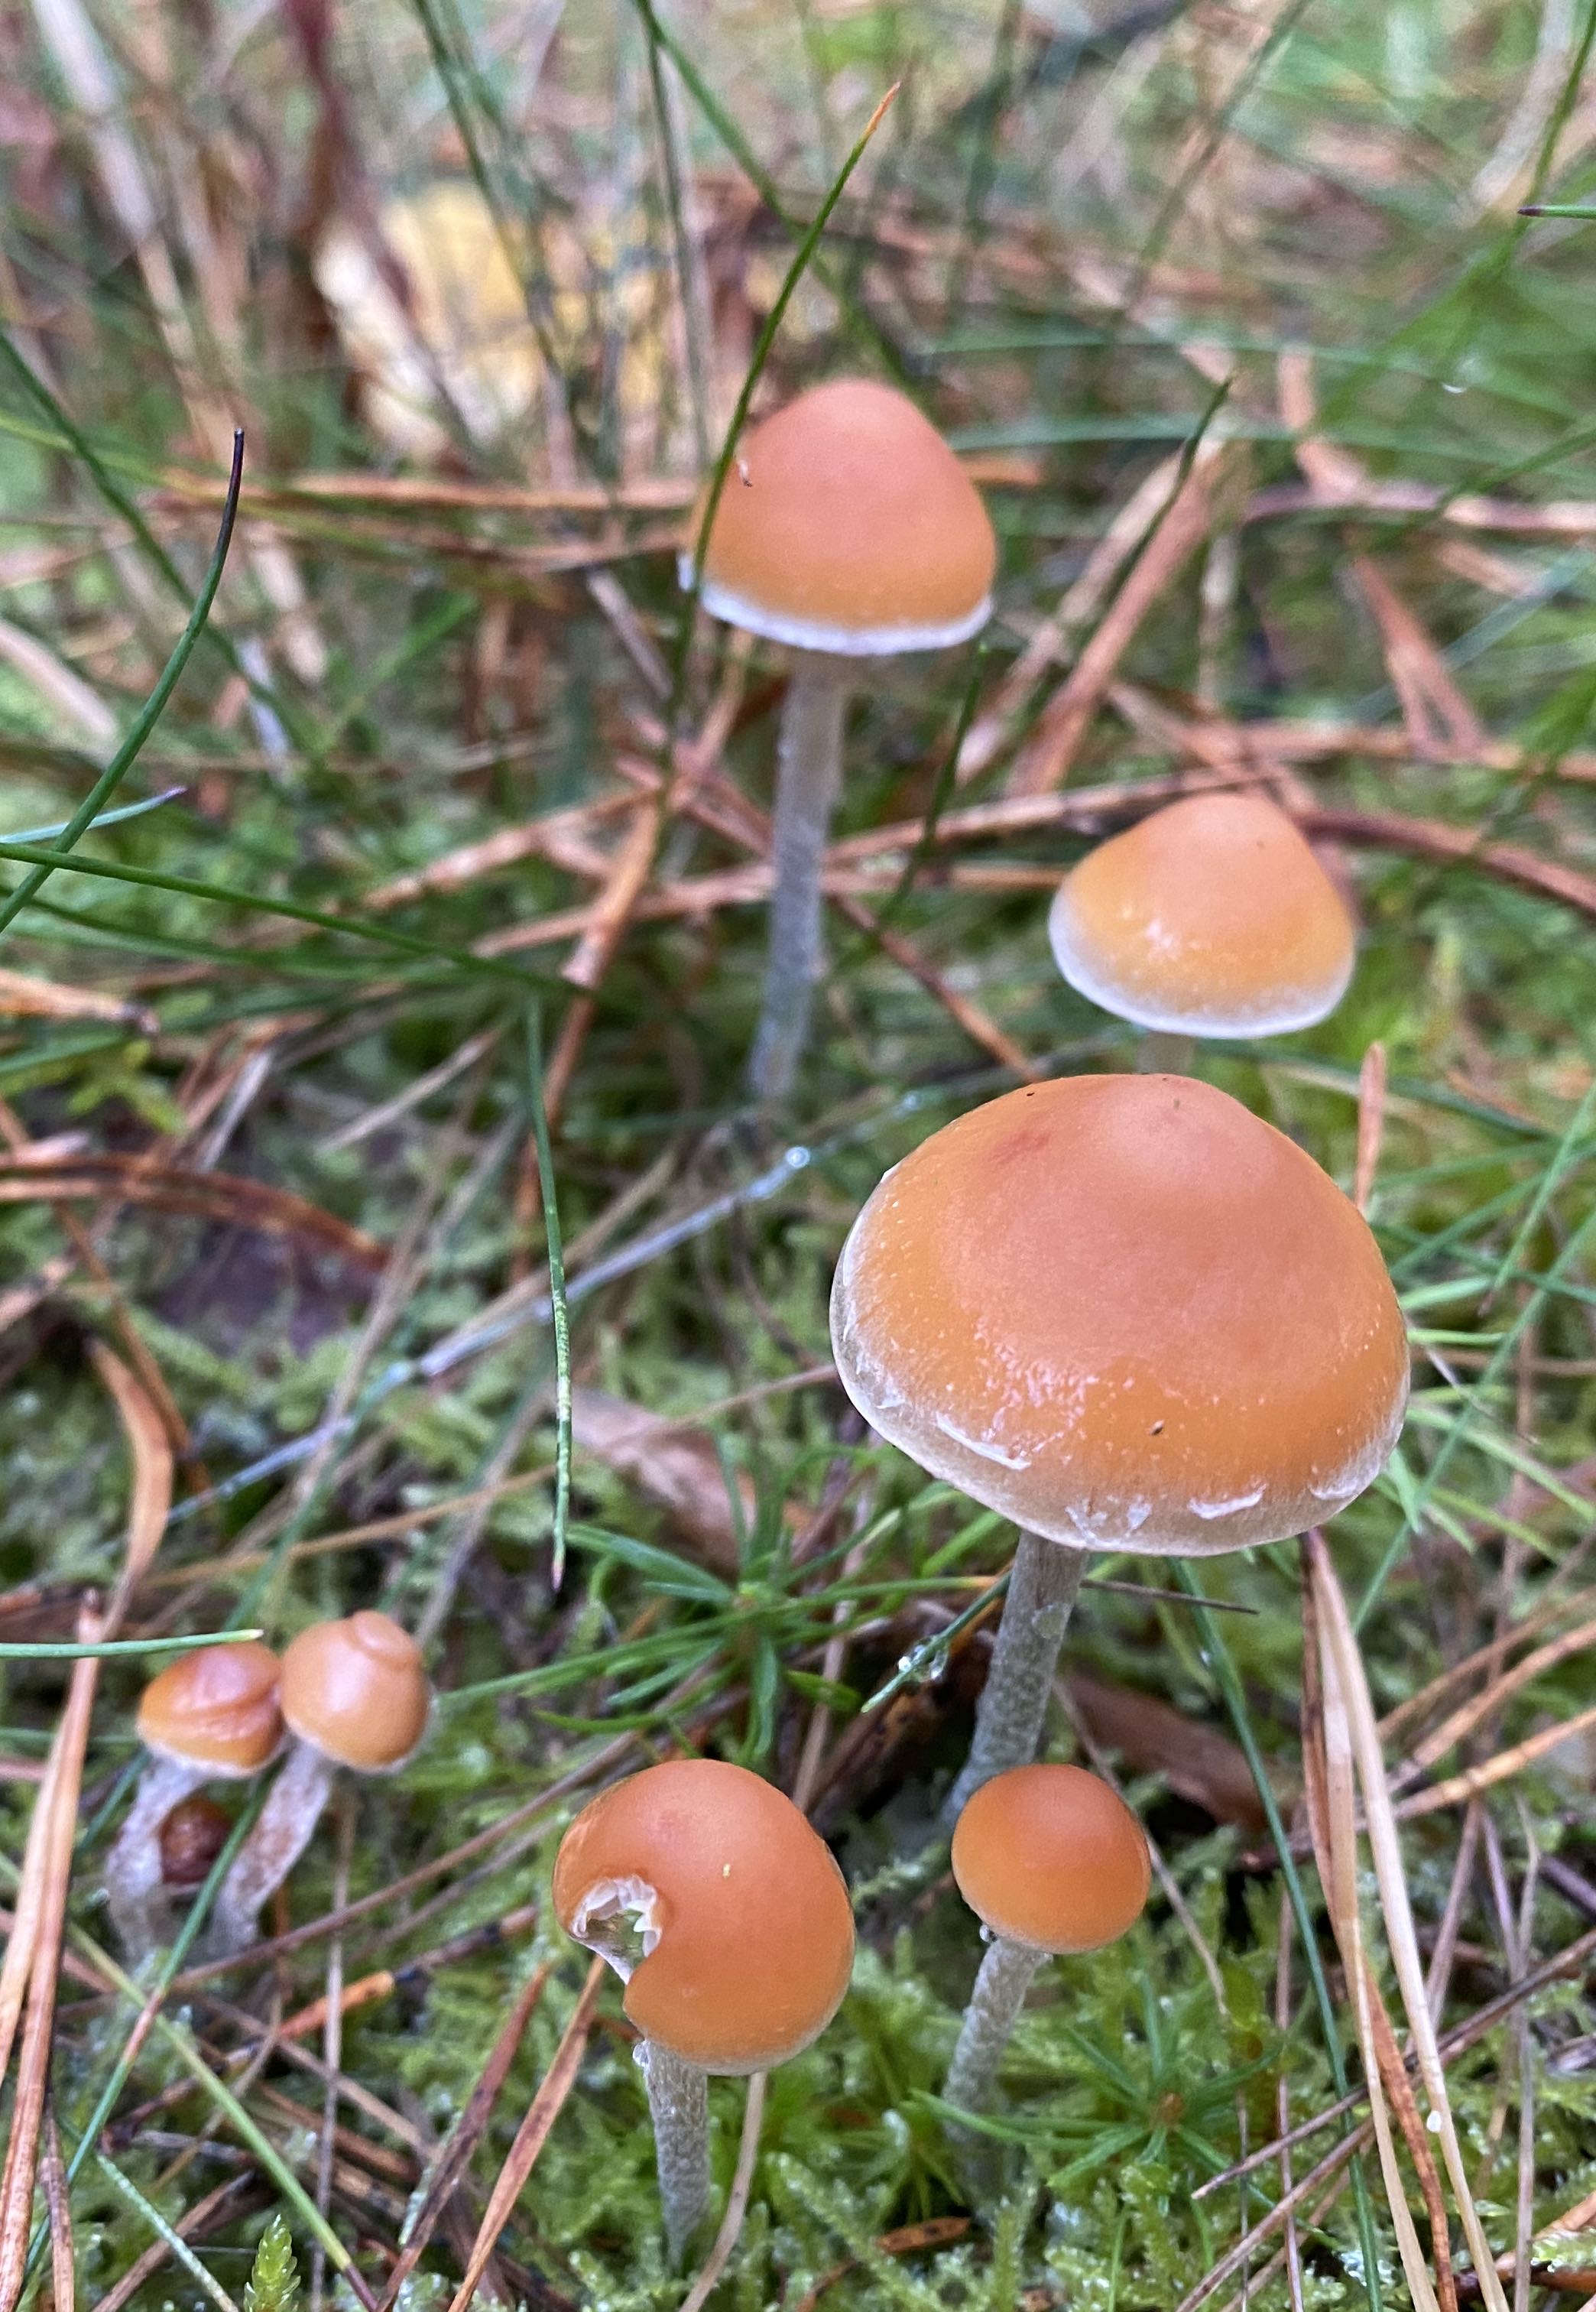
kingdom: Fungi
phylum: Basidiomycota
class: Agaricomycetes
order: Agaricales
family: Strophariaceae
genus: Hypholoma
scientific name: Hypholoma marginatum
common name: enlig svovlhat
